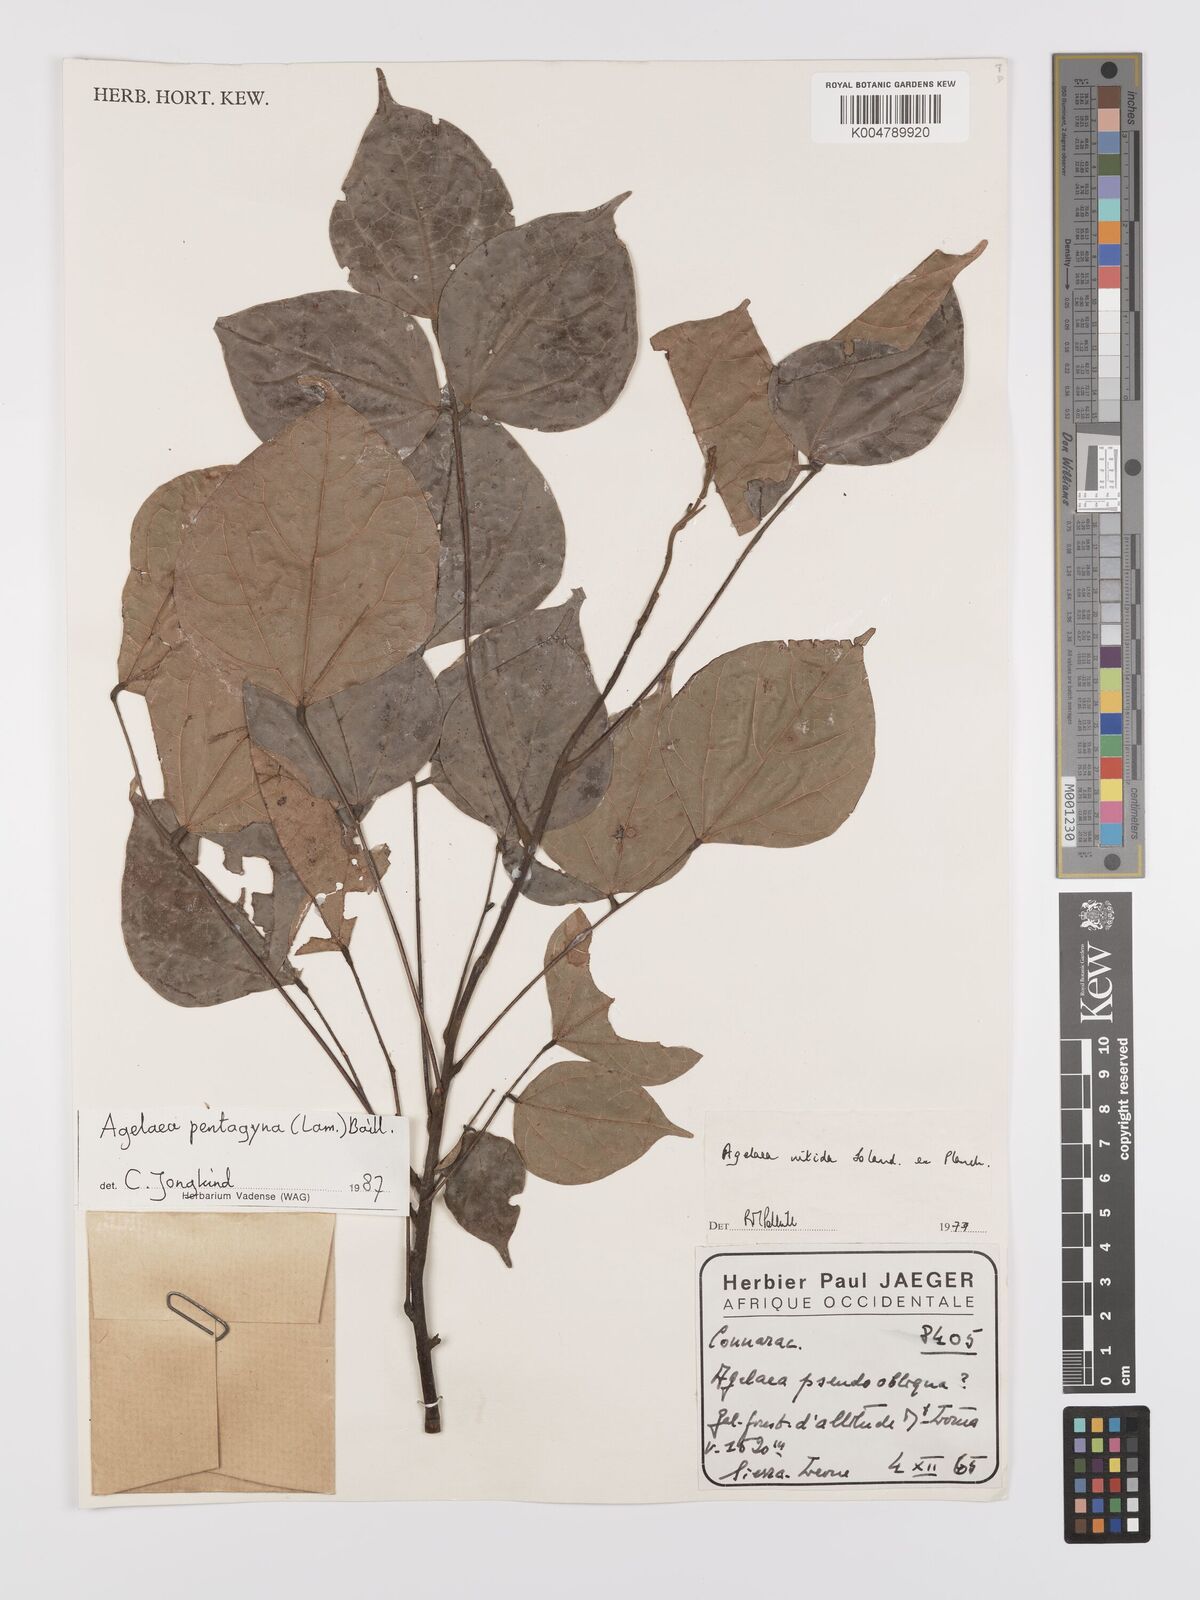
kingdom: Plantae
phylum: Tracheophyta
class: Magnoliopsida
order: Oxalidales
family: Connaraceae
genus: Agelaea
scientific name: Agelaea pentagyna
